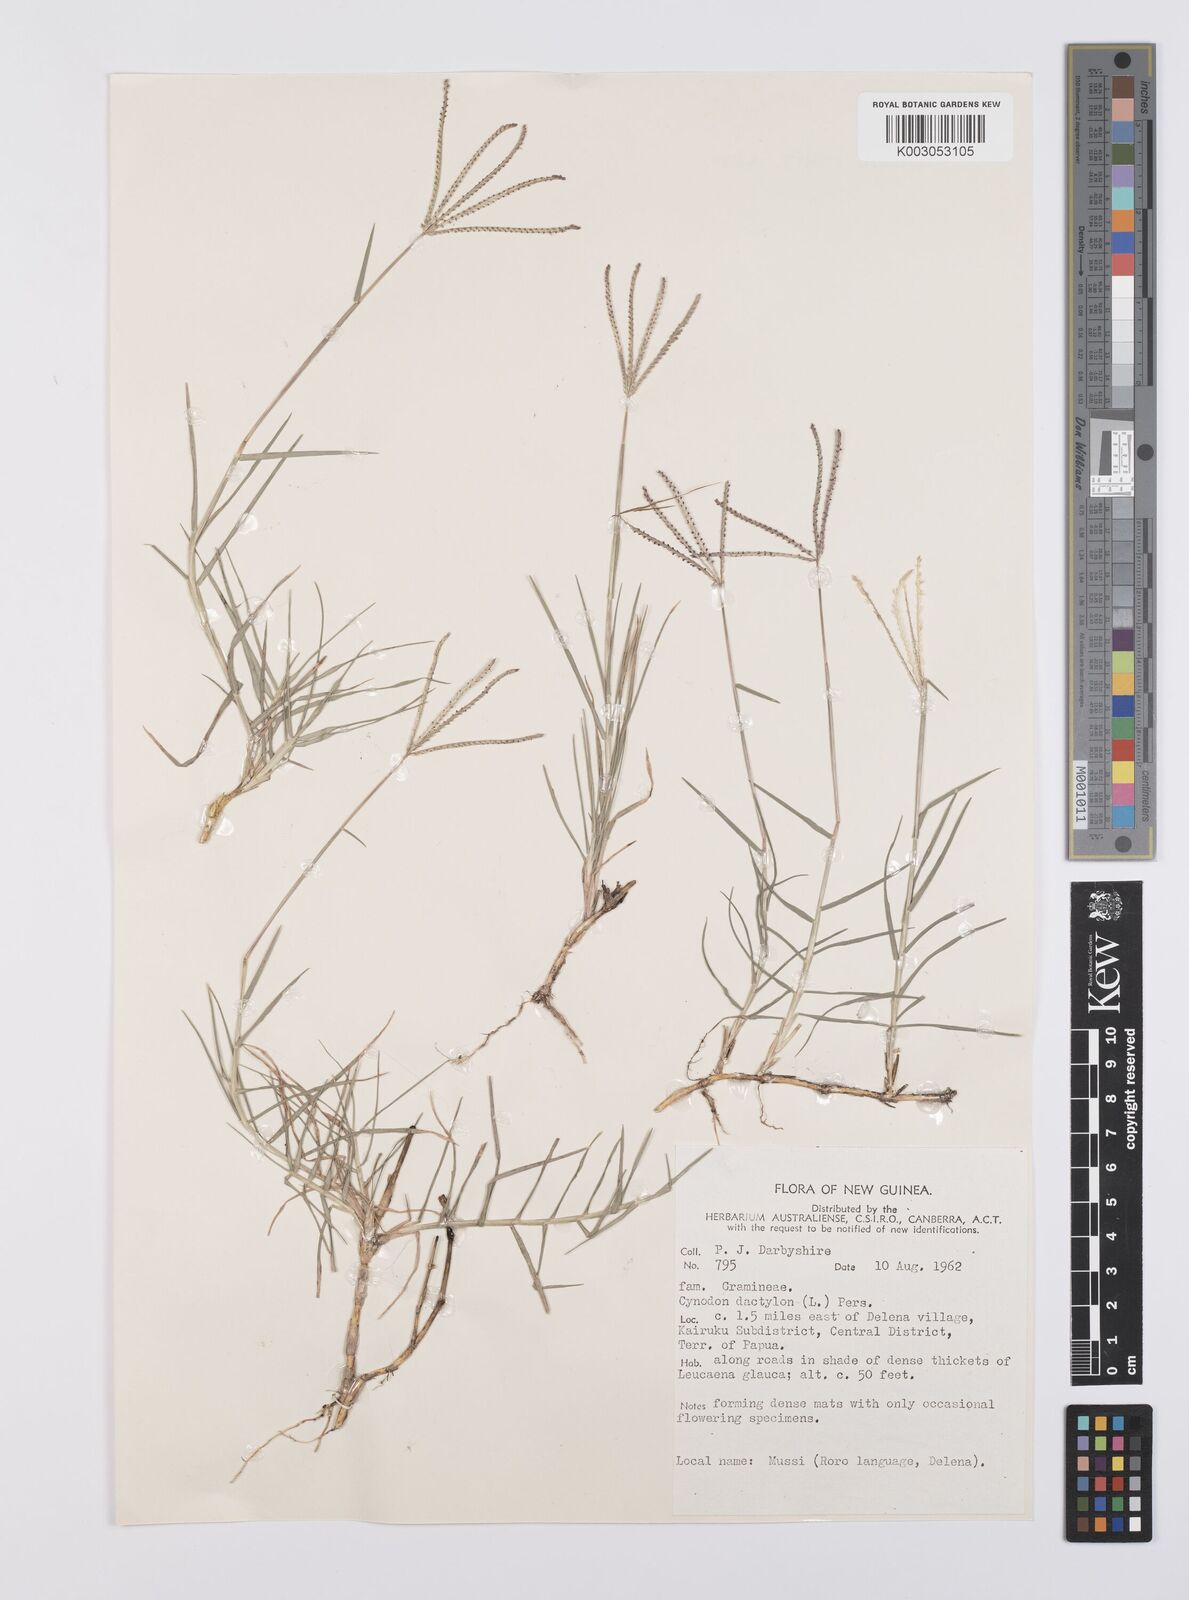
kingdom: Plantae
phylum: Tracheophyta
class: Liliopsida
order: Poales
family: Poaceae
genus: Cynodon
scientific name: Cynodon dactylon
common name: Bermuda grass
